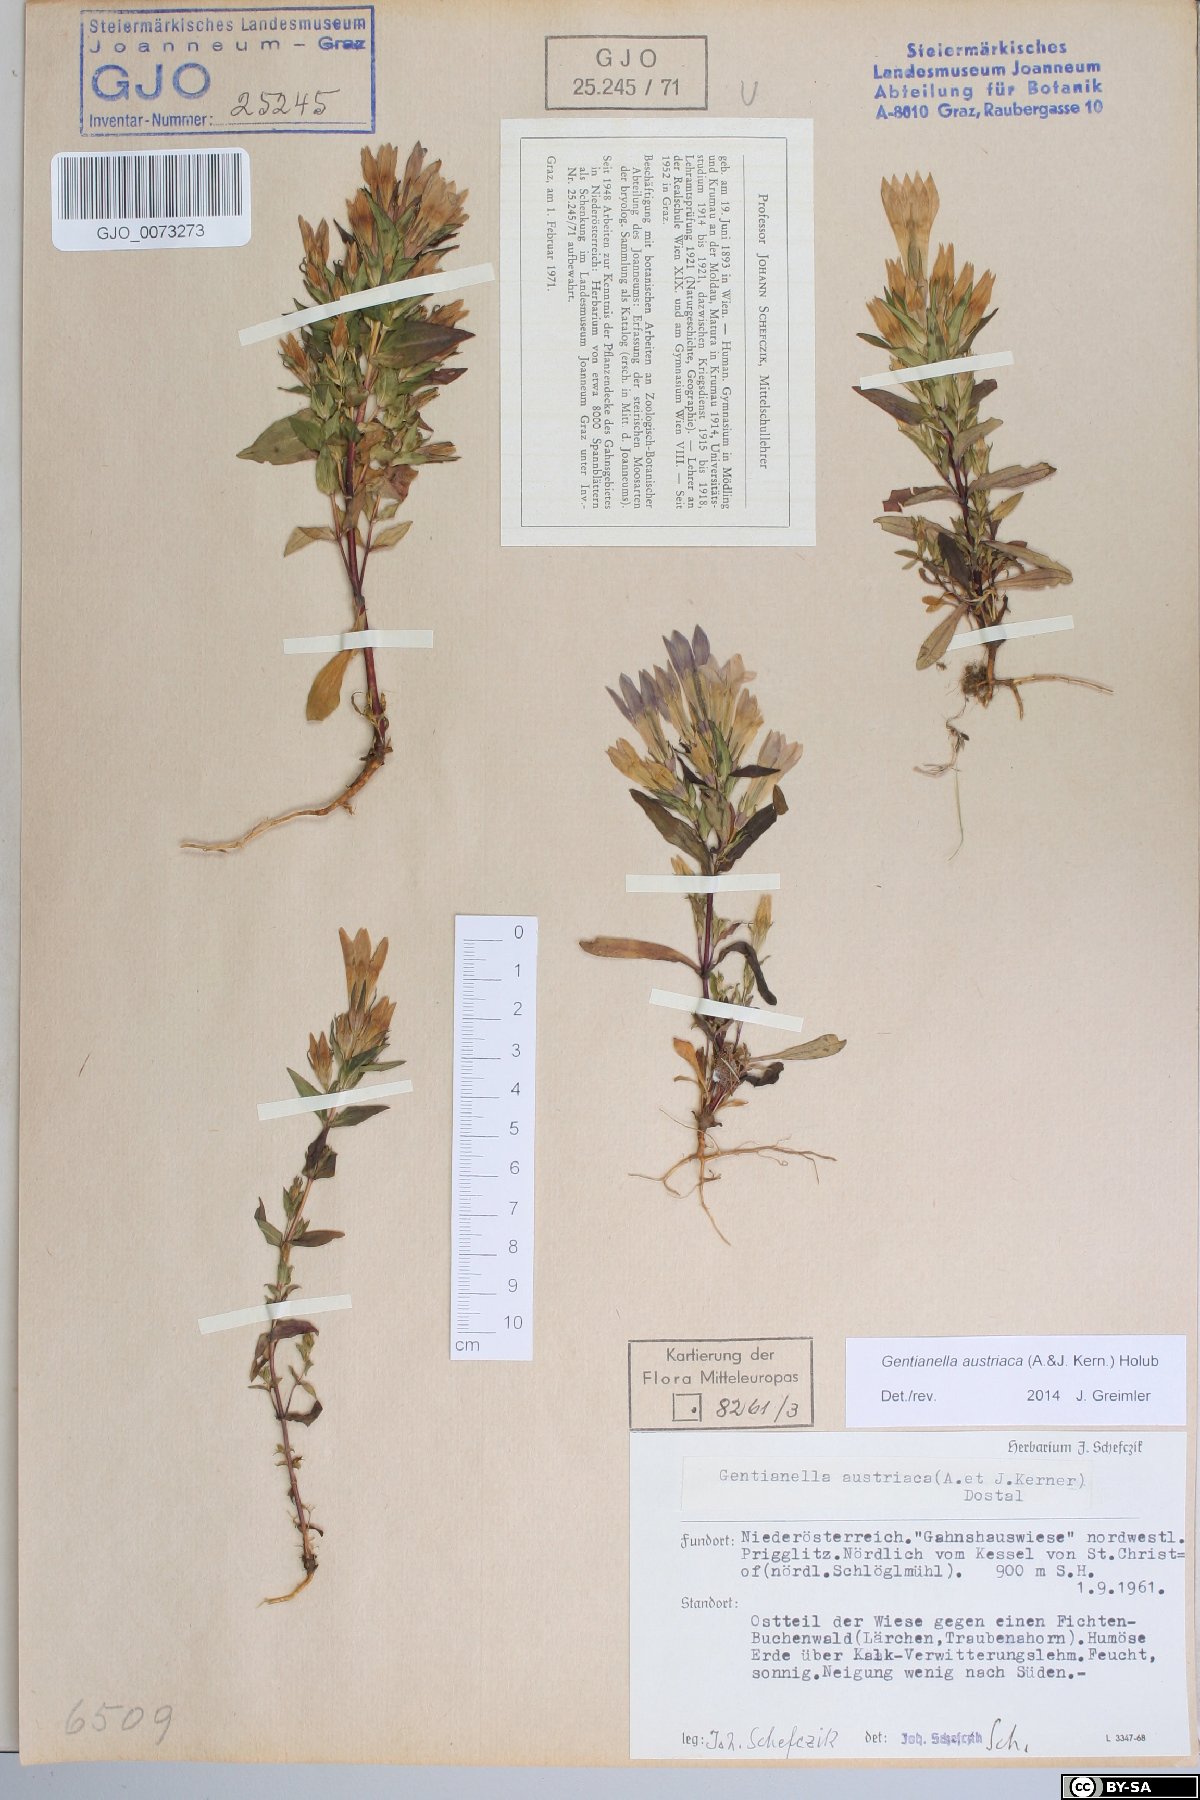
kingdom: Plantae
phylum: Tracheophyta
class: Magnoliopsida
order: Gentianales
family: Gentianaceae
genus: Gentianella
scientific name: Gentianella austriaca
